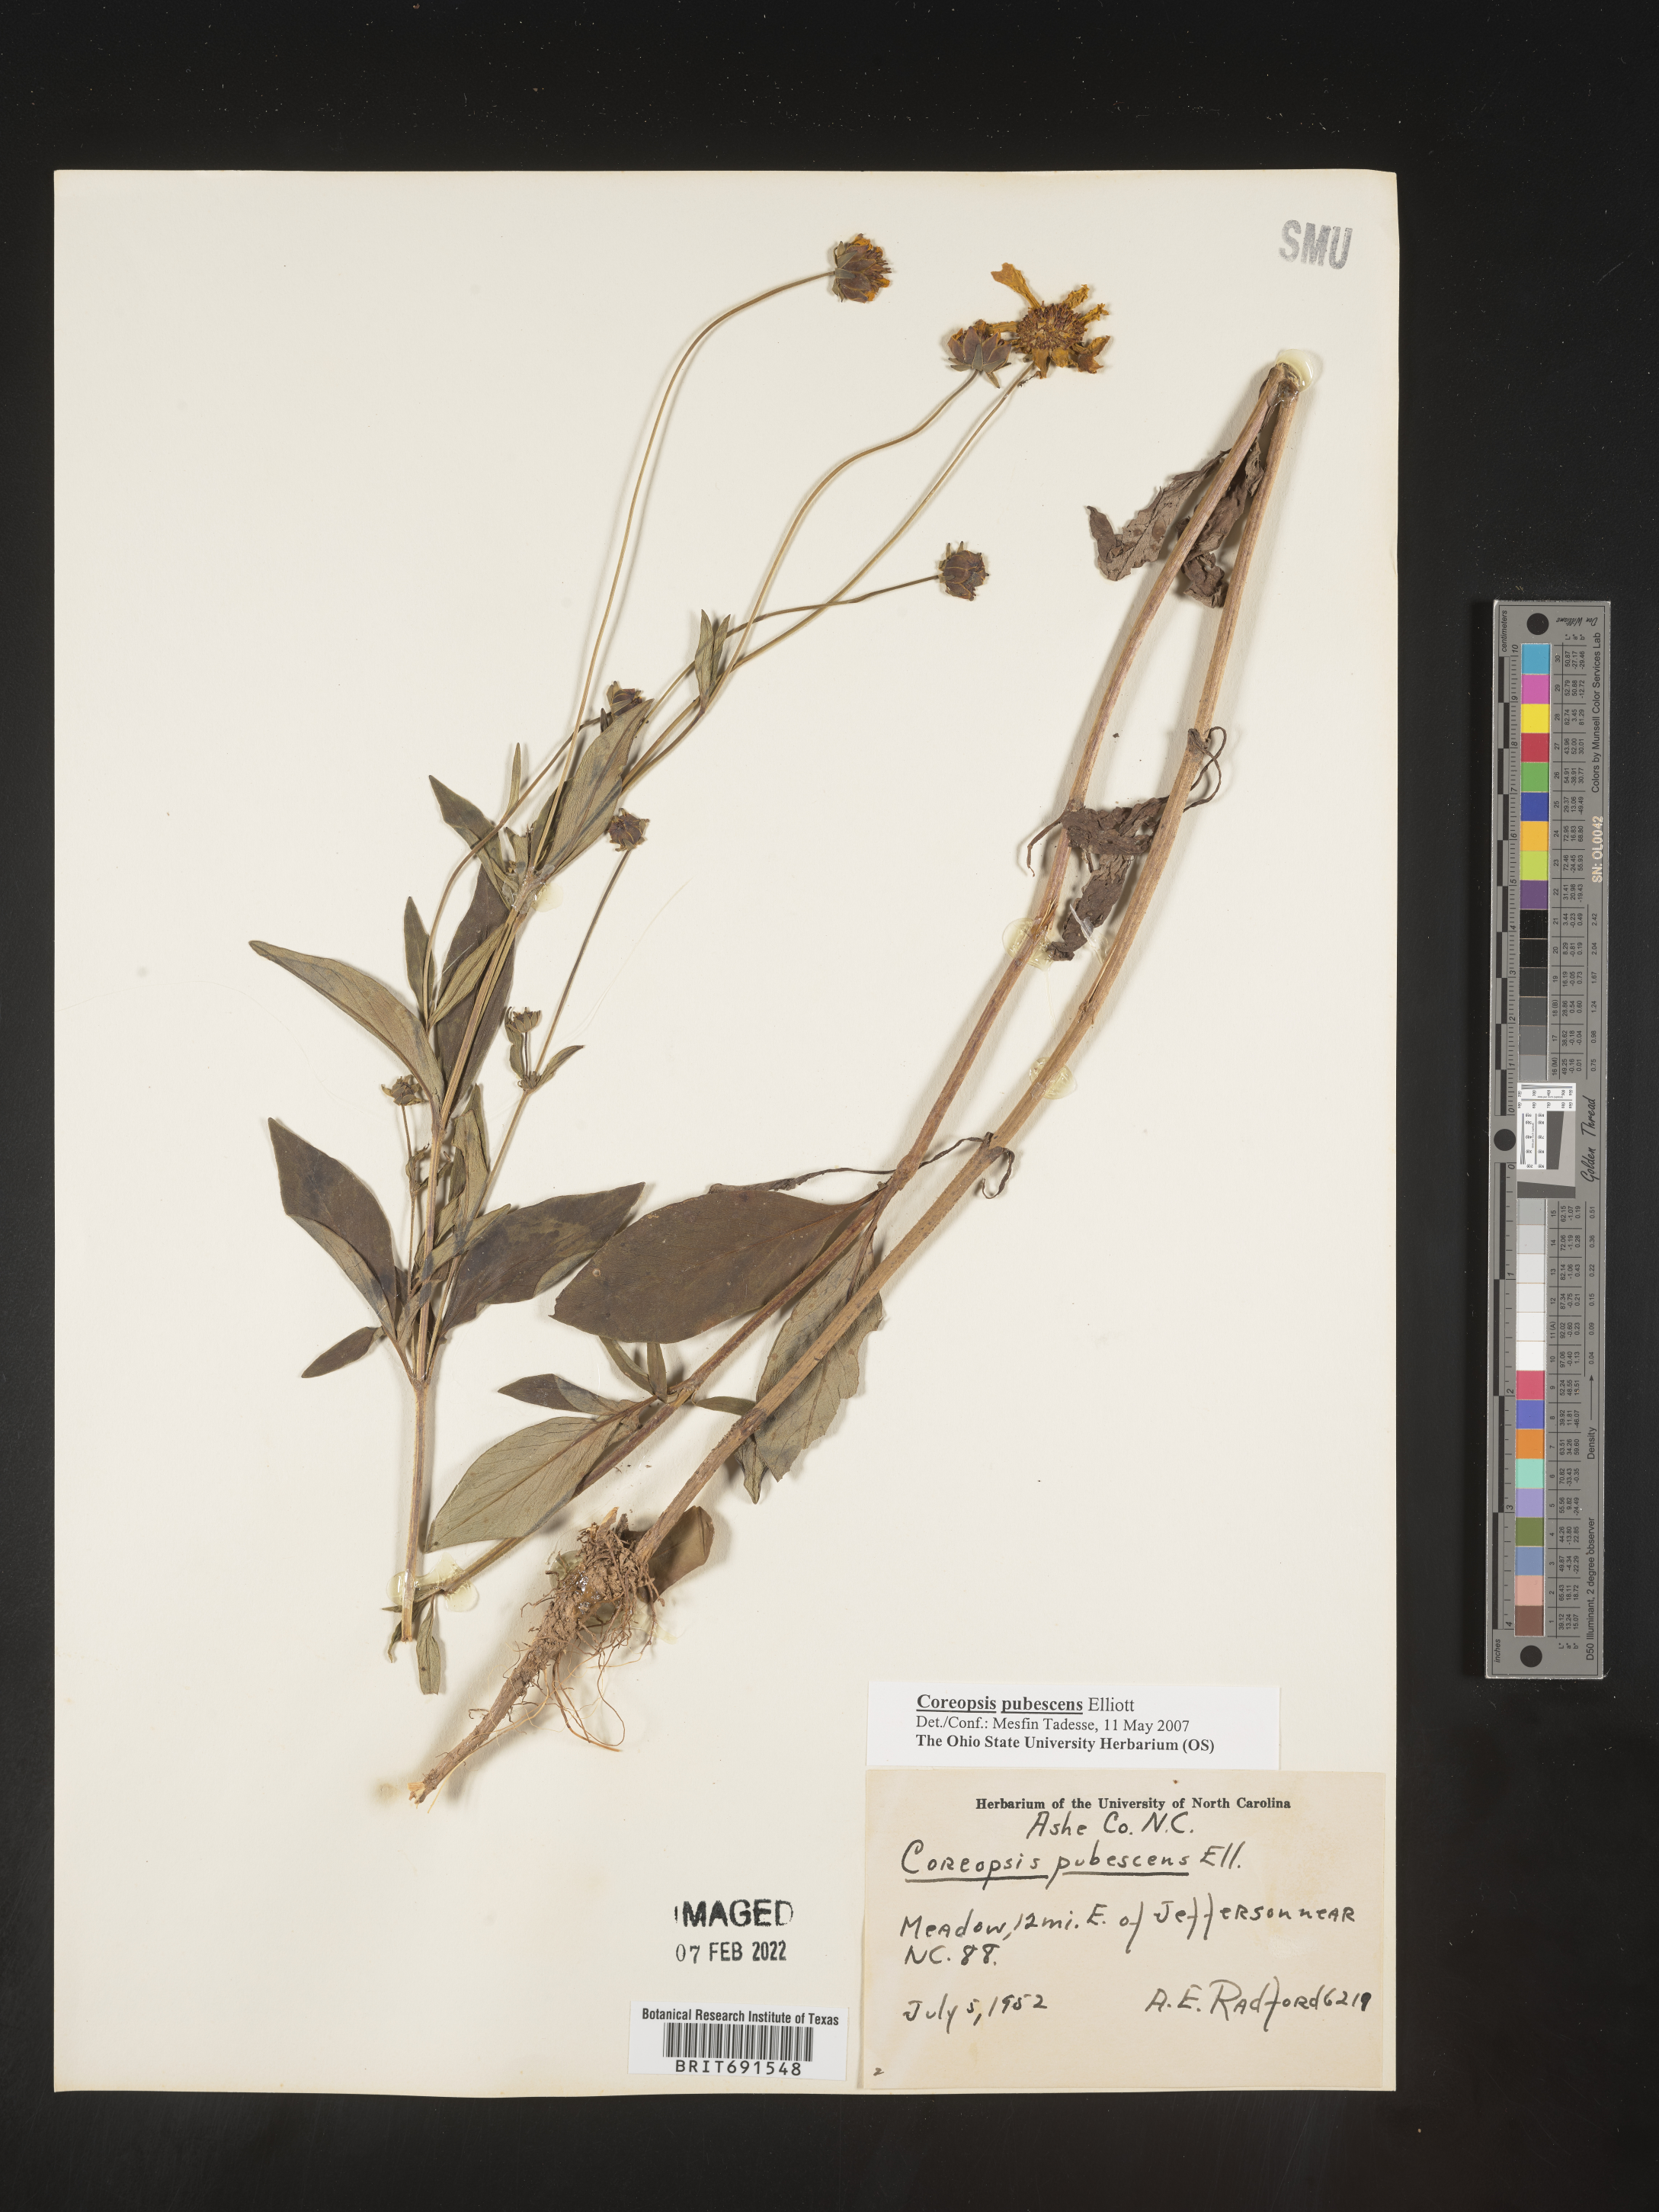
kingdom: Plantae
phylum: Tracheophyta
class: Magnoliopsida
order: Asterales
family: Asteraceae
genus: Coreopsis
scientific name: Coreopsis pubescens
